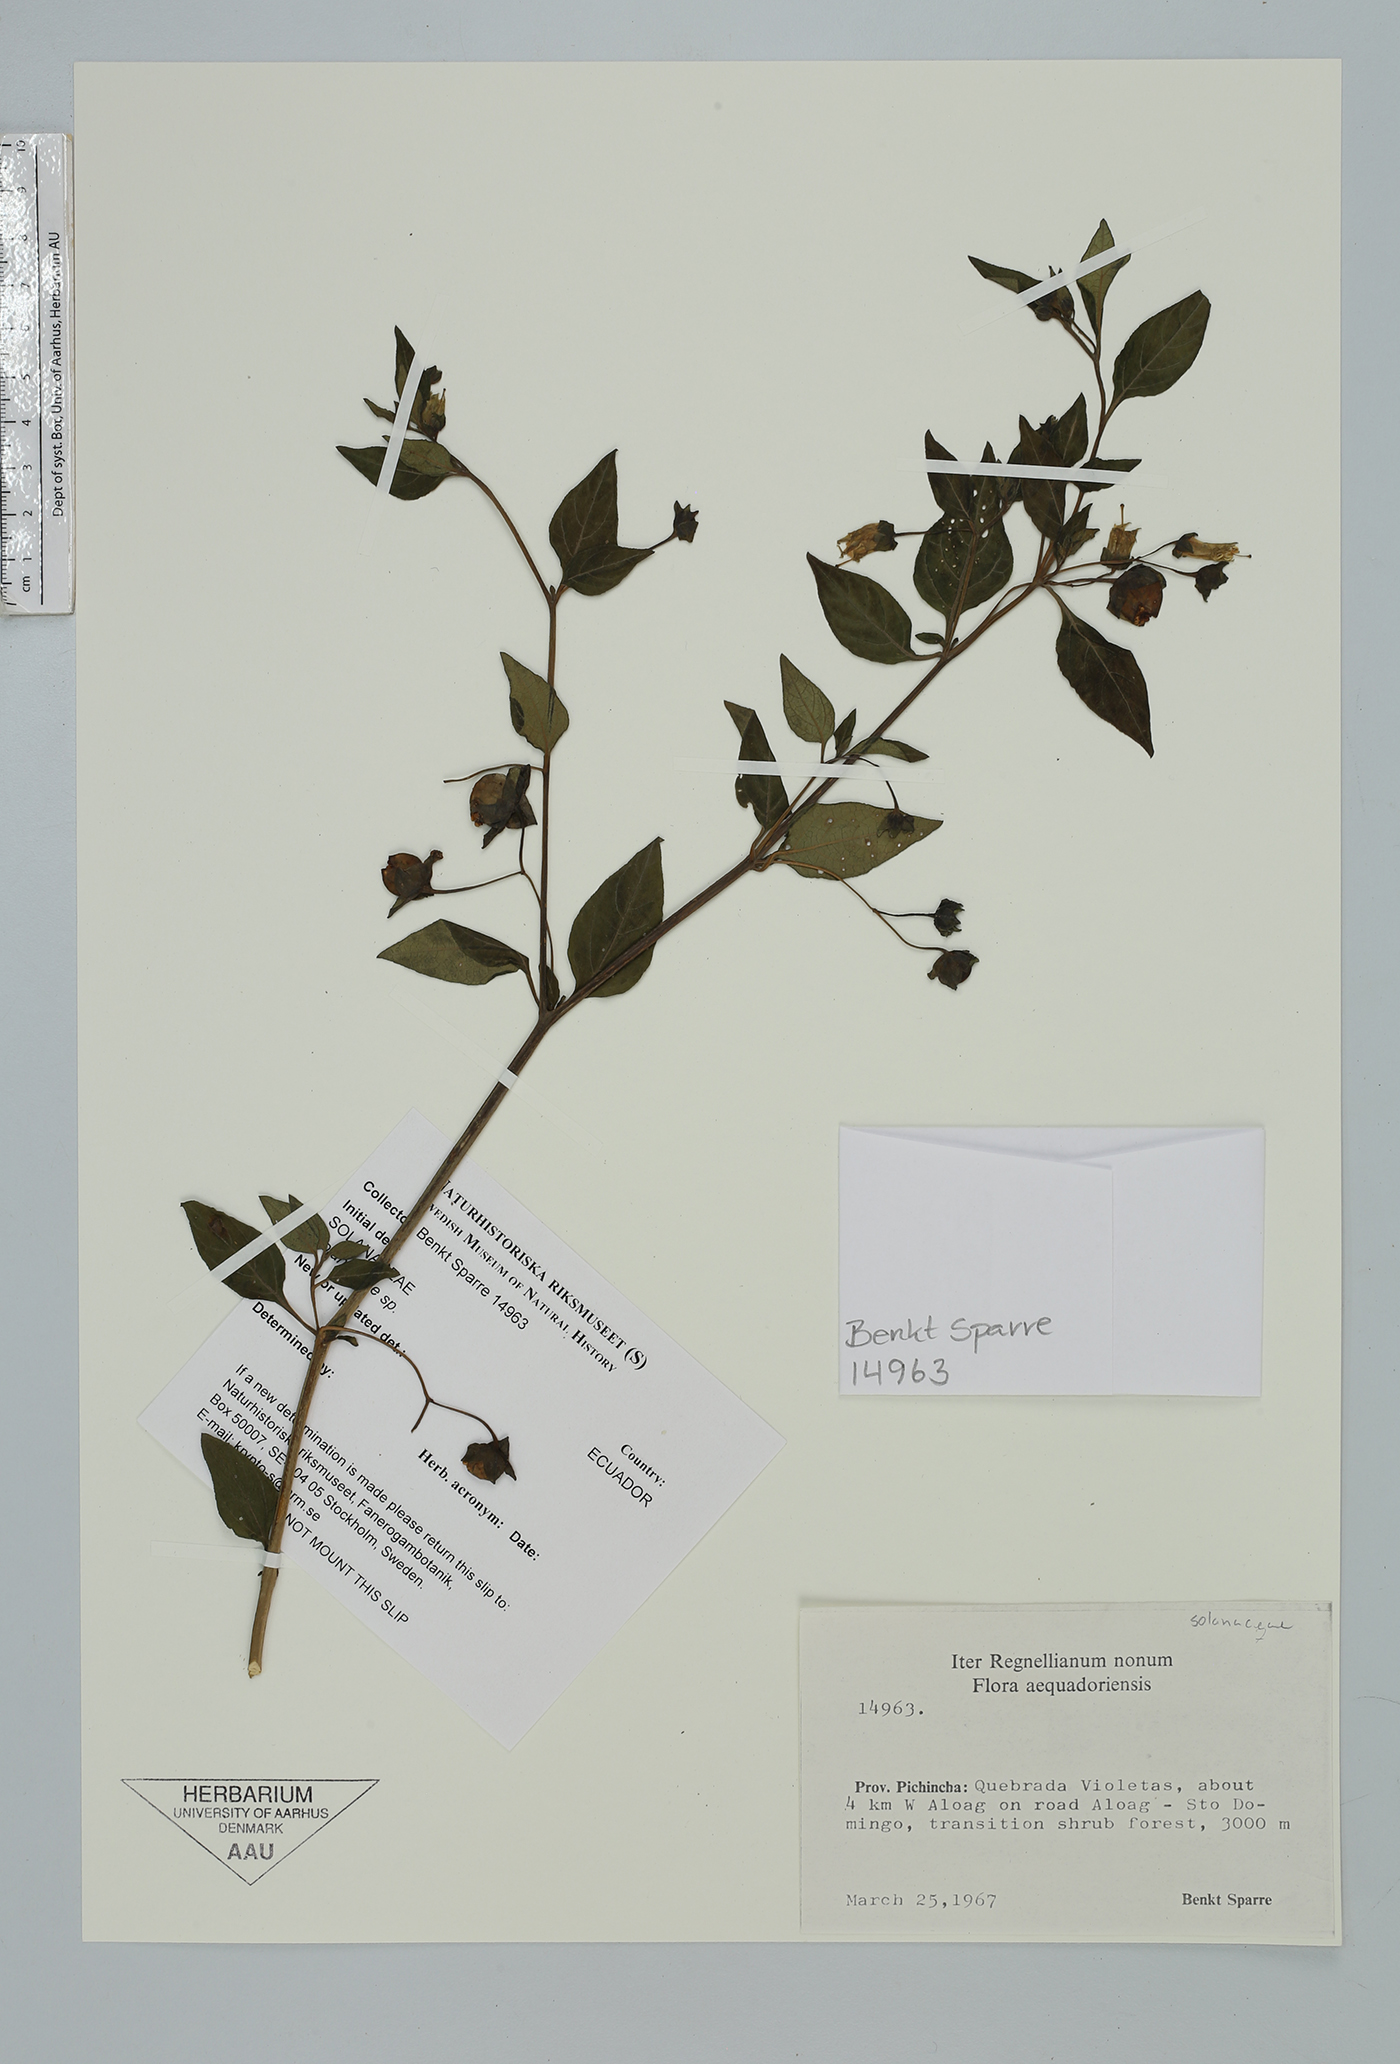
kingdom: Plantae
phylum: Tracheophyta
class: Magnoliopsida
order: Solanales
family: Solanaceae
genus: Jaltomata
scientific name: Jaltomata
